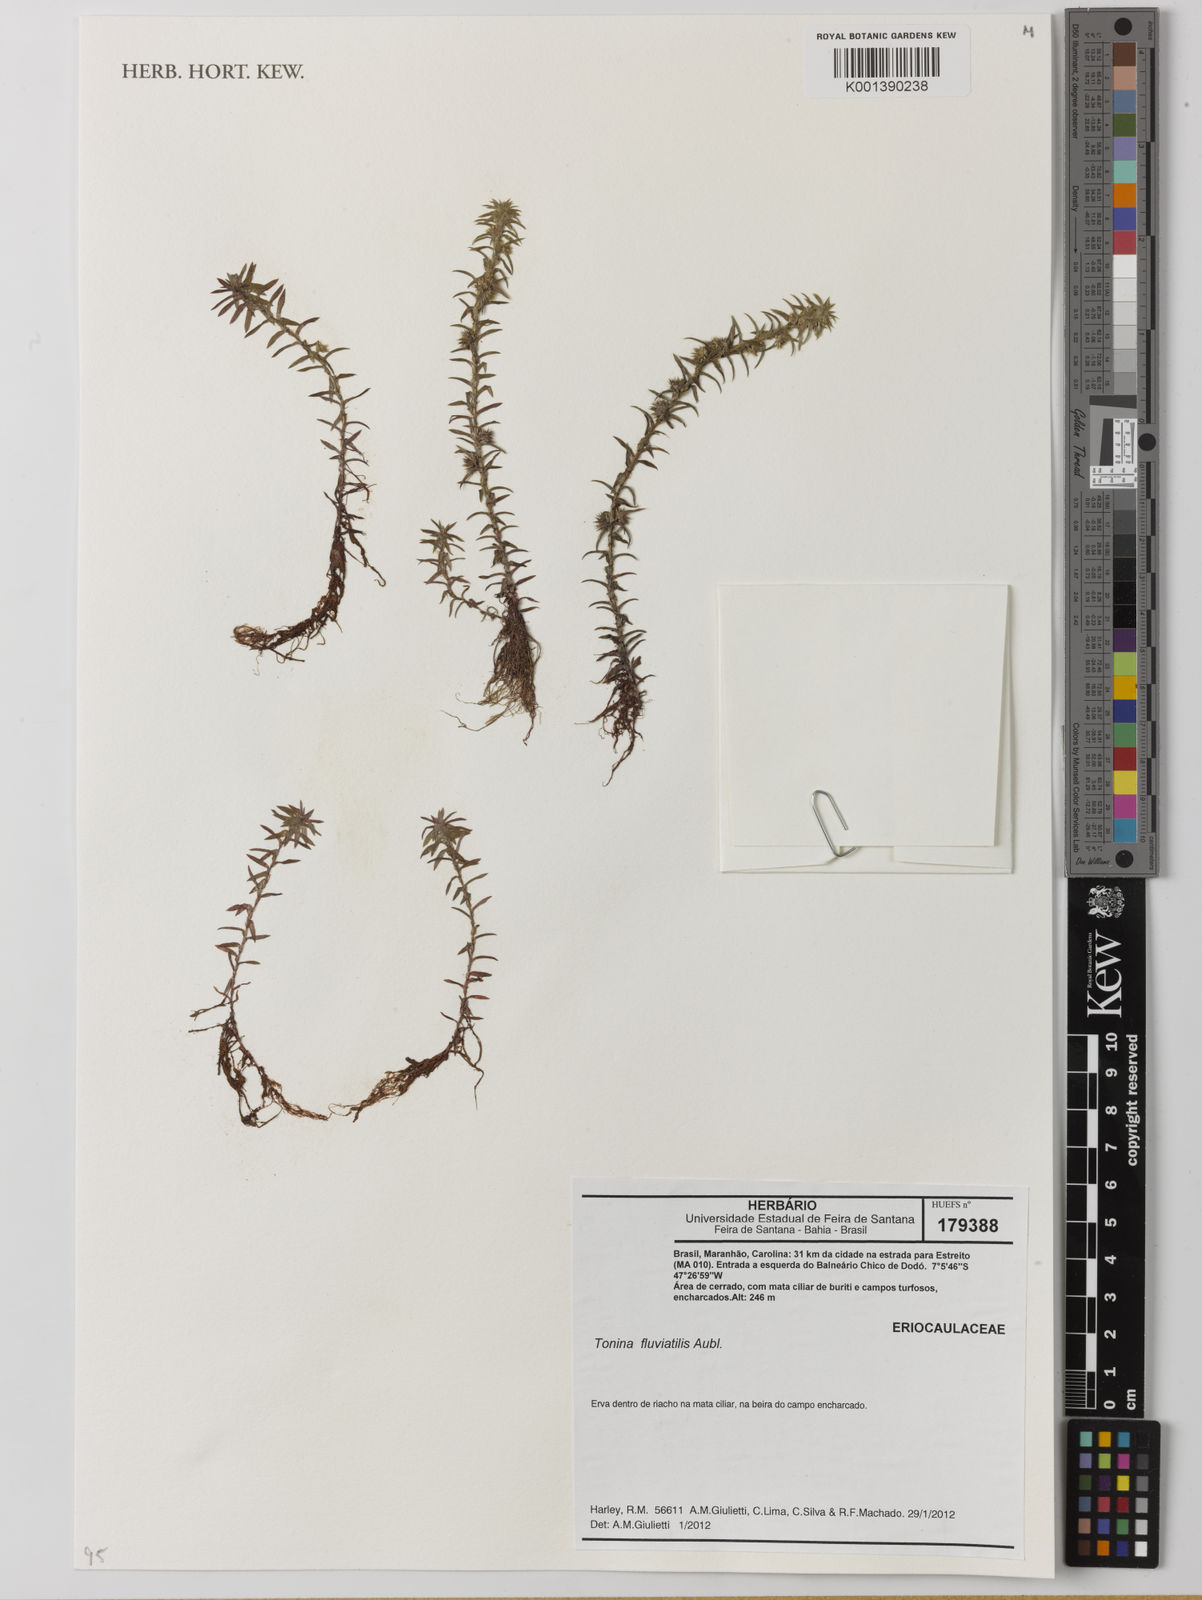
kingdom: Plantae
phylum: Tracheophyta
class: Liliopsida
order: Poales
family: Eriocaulaceae
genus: Paepalanthus
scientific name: Paepalanthus fluviatilis
